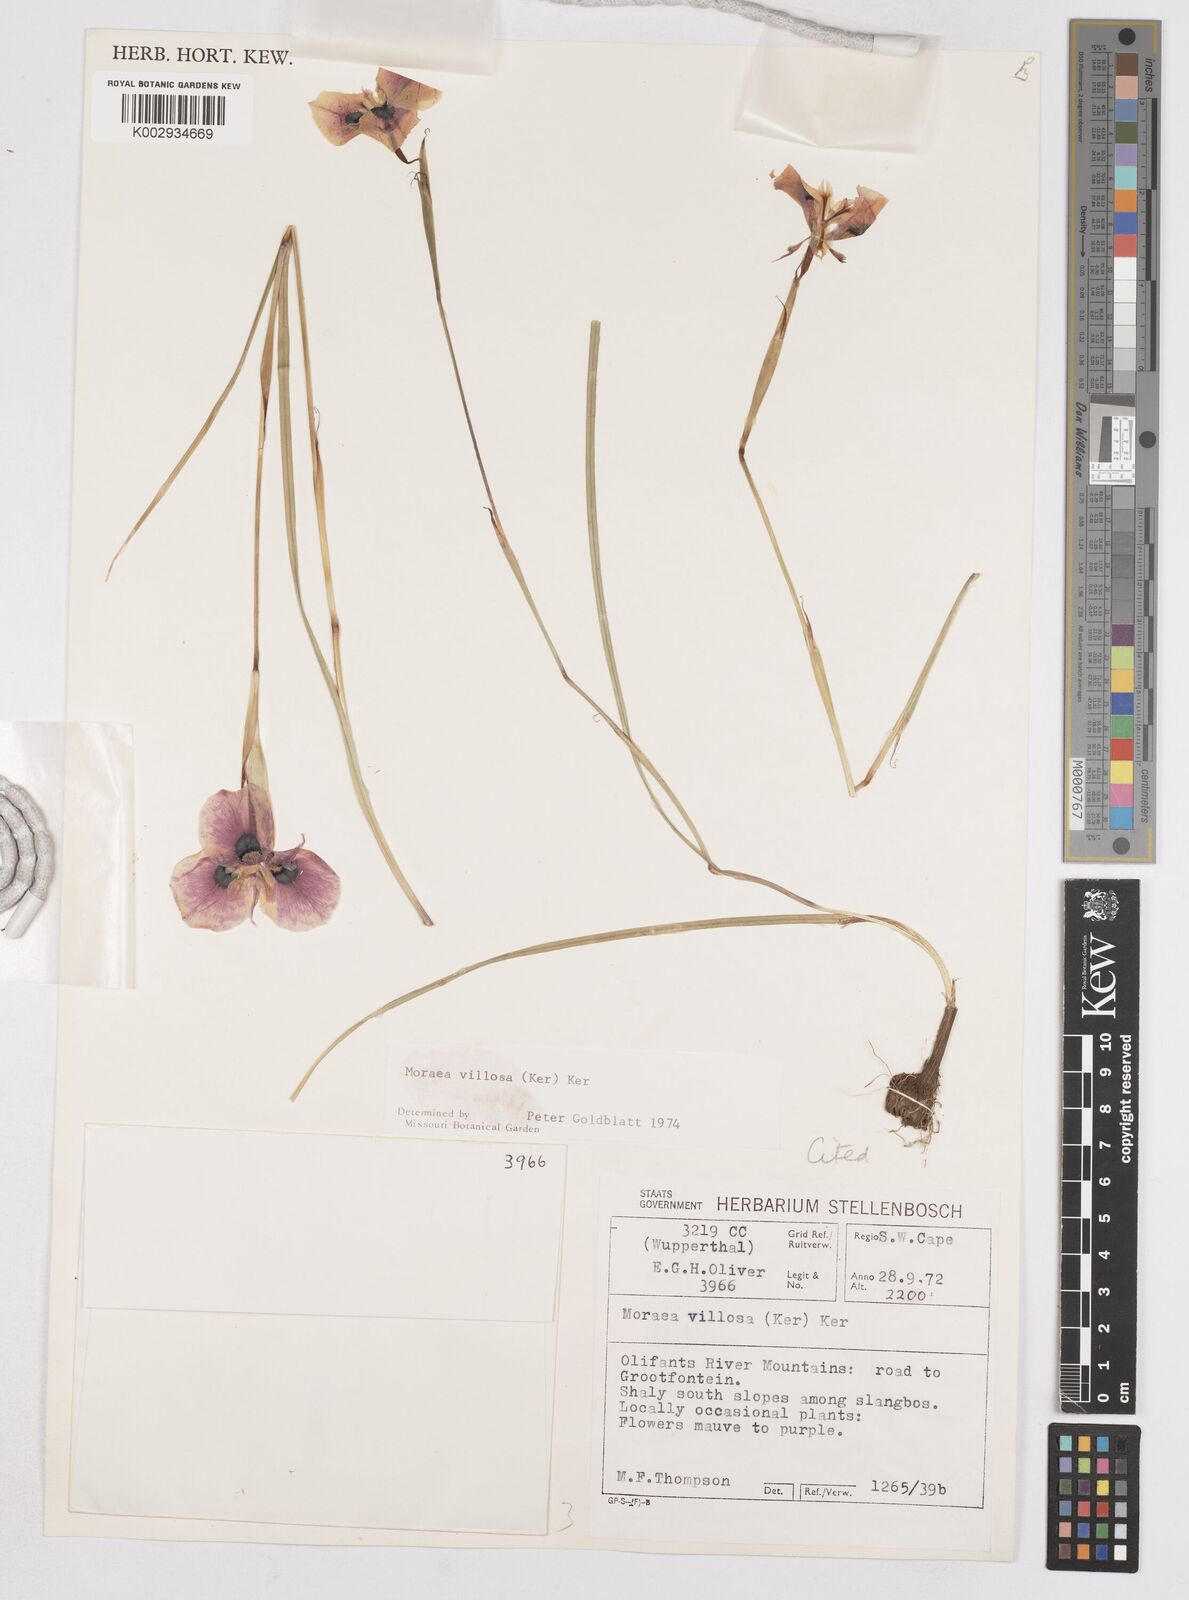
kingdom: Plantae
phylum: Tracheophyta
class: Liliopsida
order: Asparagales
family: Iridaceae
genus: Moraea
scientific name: Moraea villosa
